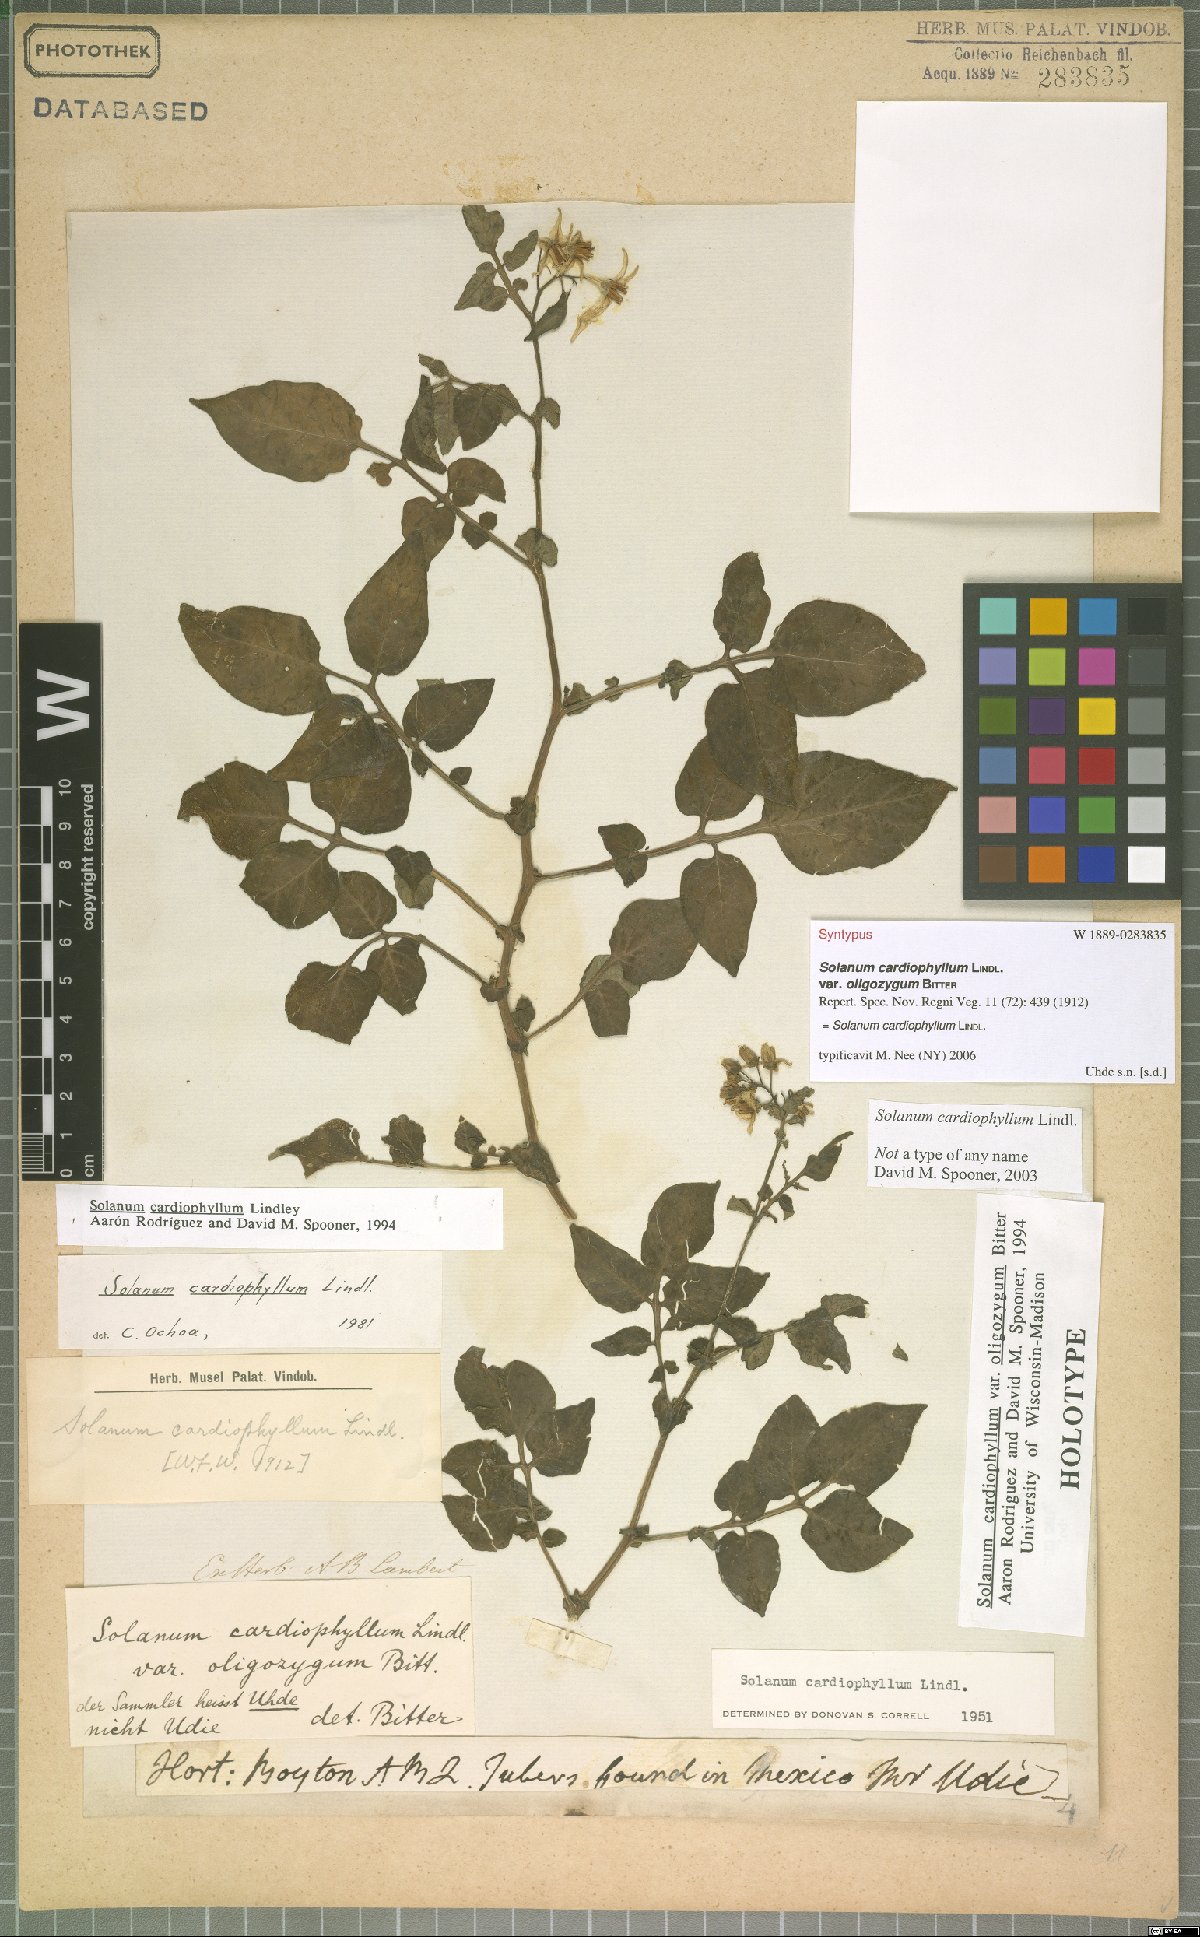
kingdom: Plantae
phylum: Tracheophyta
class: Magnoliopsida
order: Solanales
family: Solanaceae
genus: Solanum
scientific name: Solanum cardiophyllum
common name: Heartleaf horsenettle
